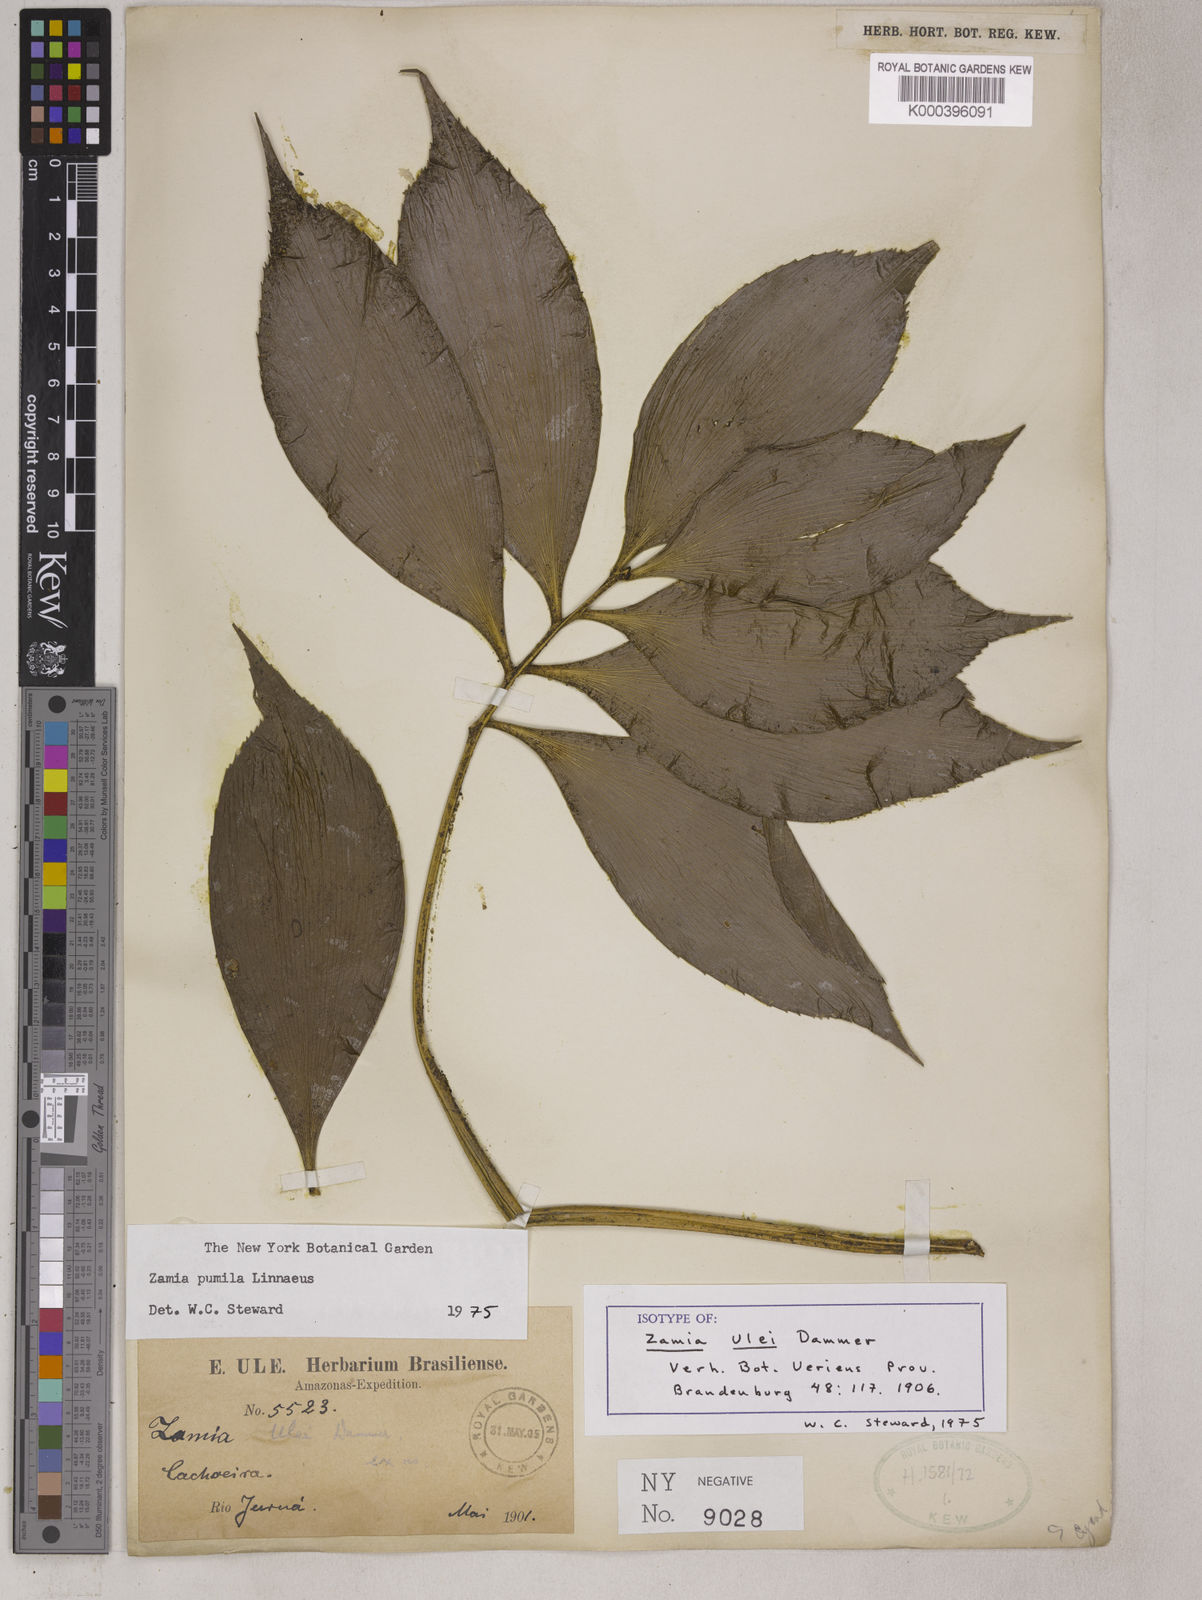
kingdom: Plantae
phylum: Tracheophyta
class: Cycadopsida
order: Cycadales
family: Zamiaceae
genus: Zamia
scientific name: Zamia ulei
